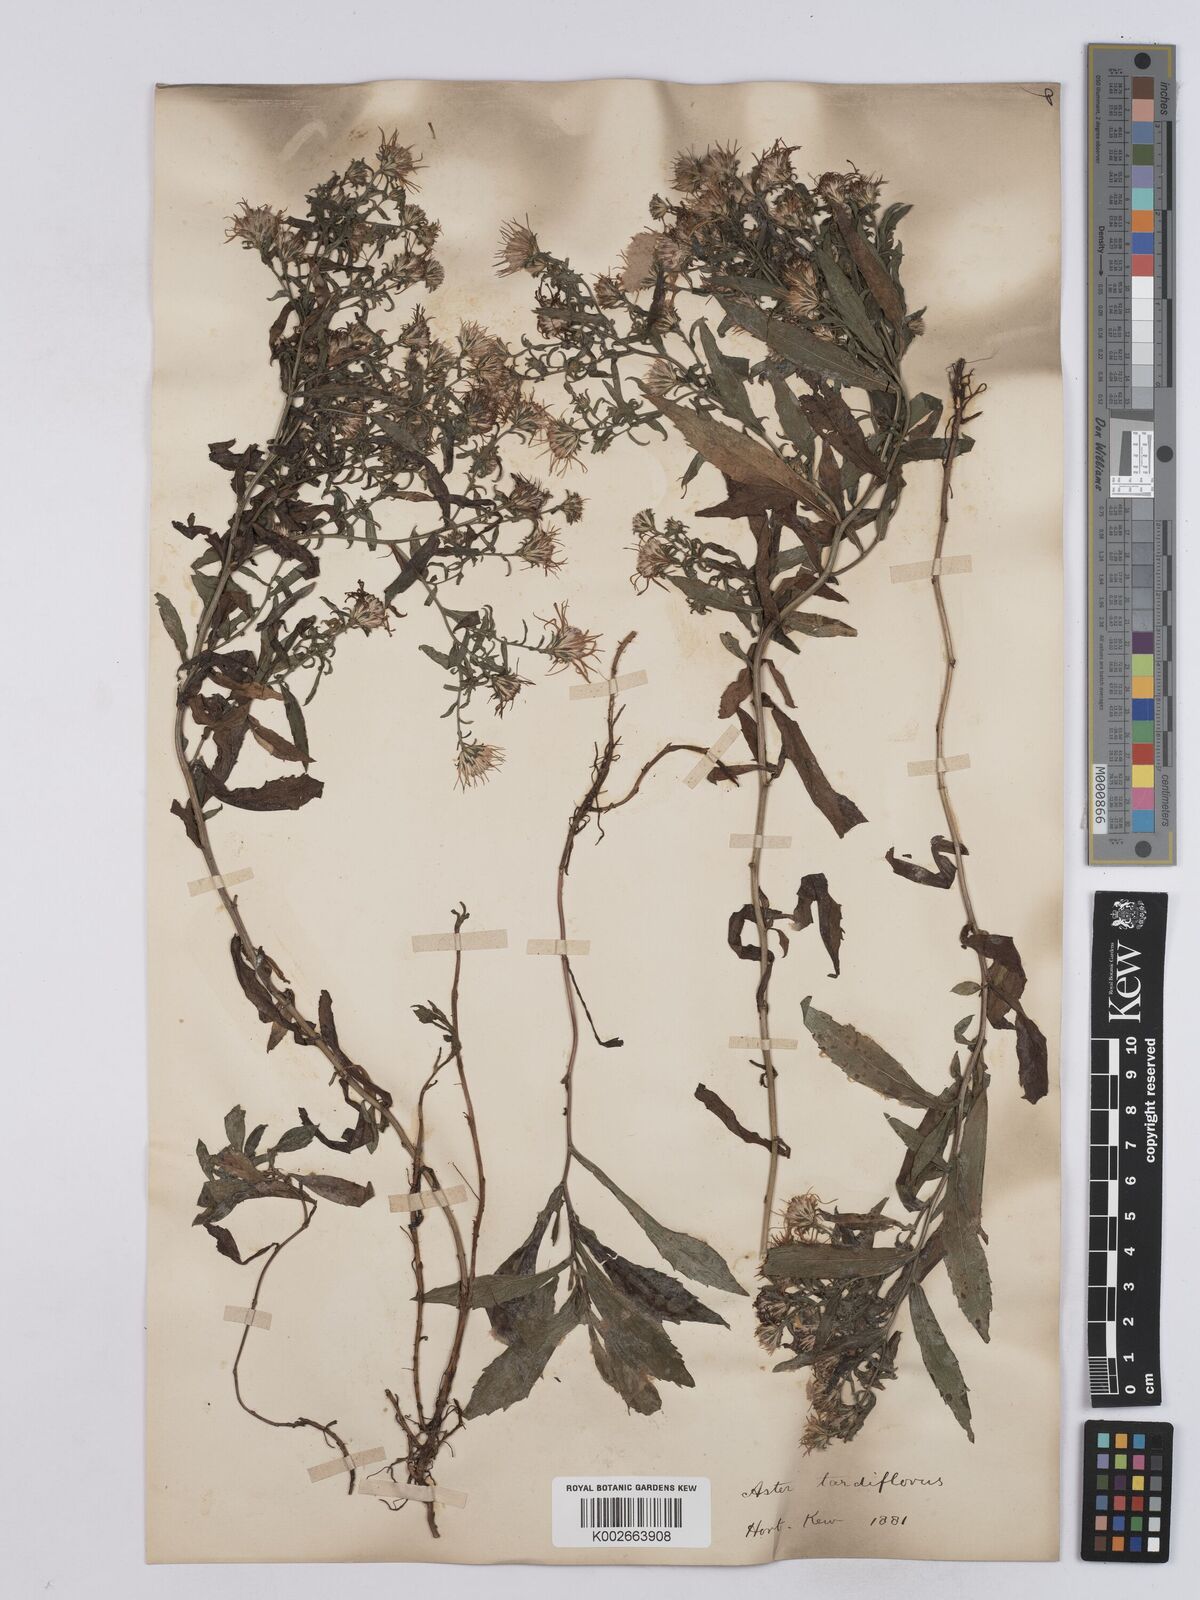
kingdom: Plantae
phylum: Tracheophyta
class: Magnoliopsida
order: Asterales
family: Asteraceae
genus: Symphyotrichum
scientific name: Symphyotrichum tardiflorum
